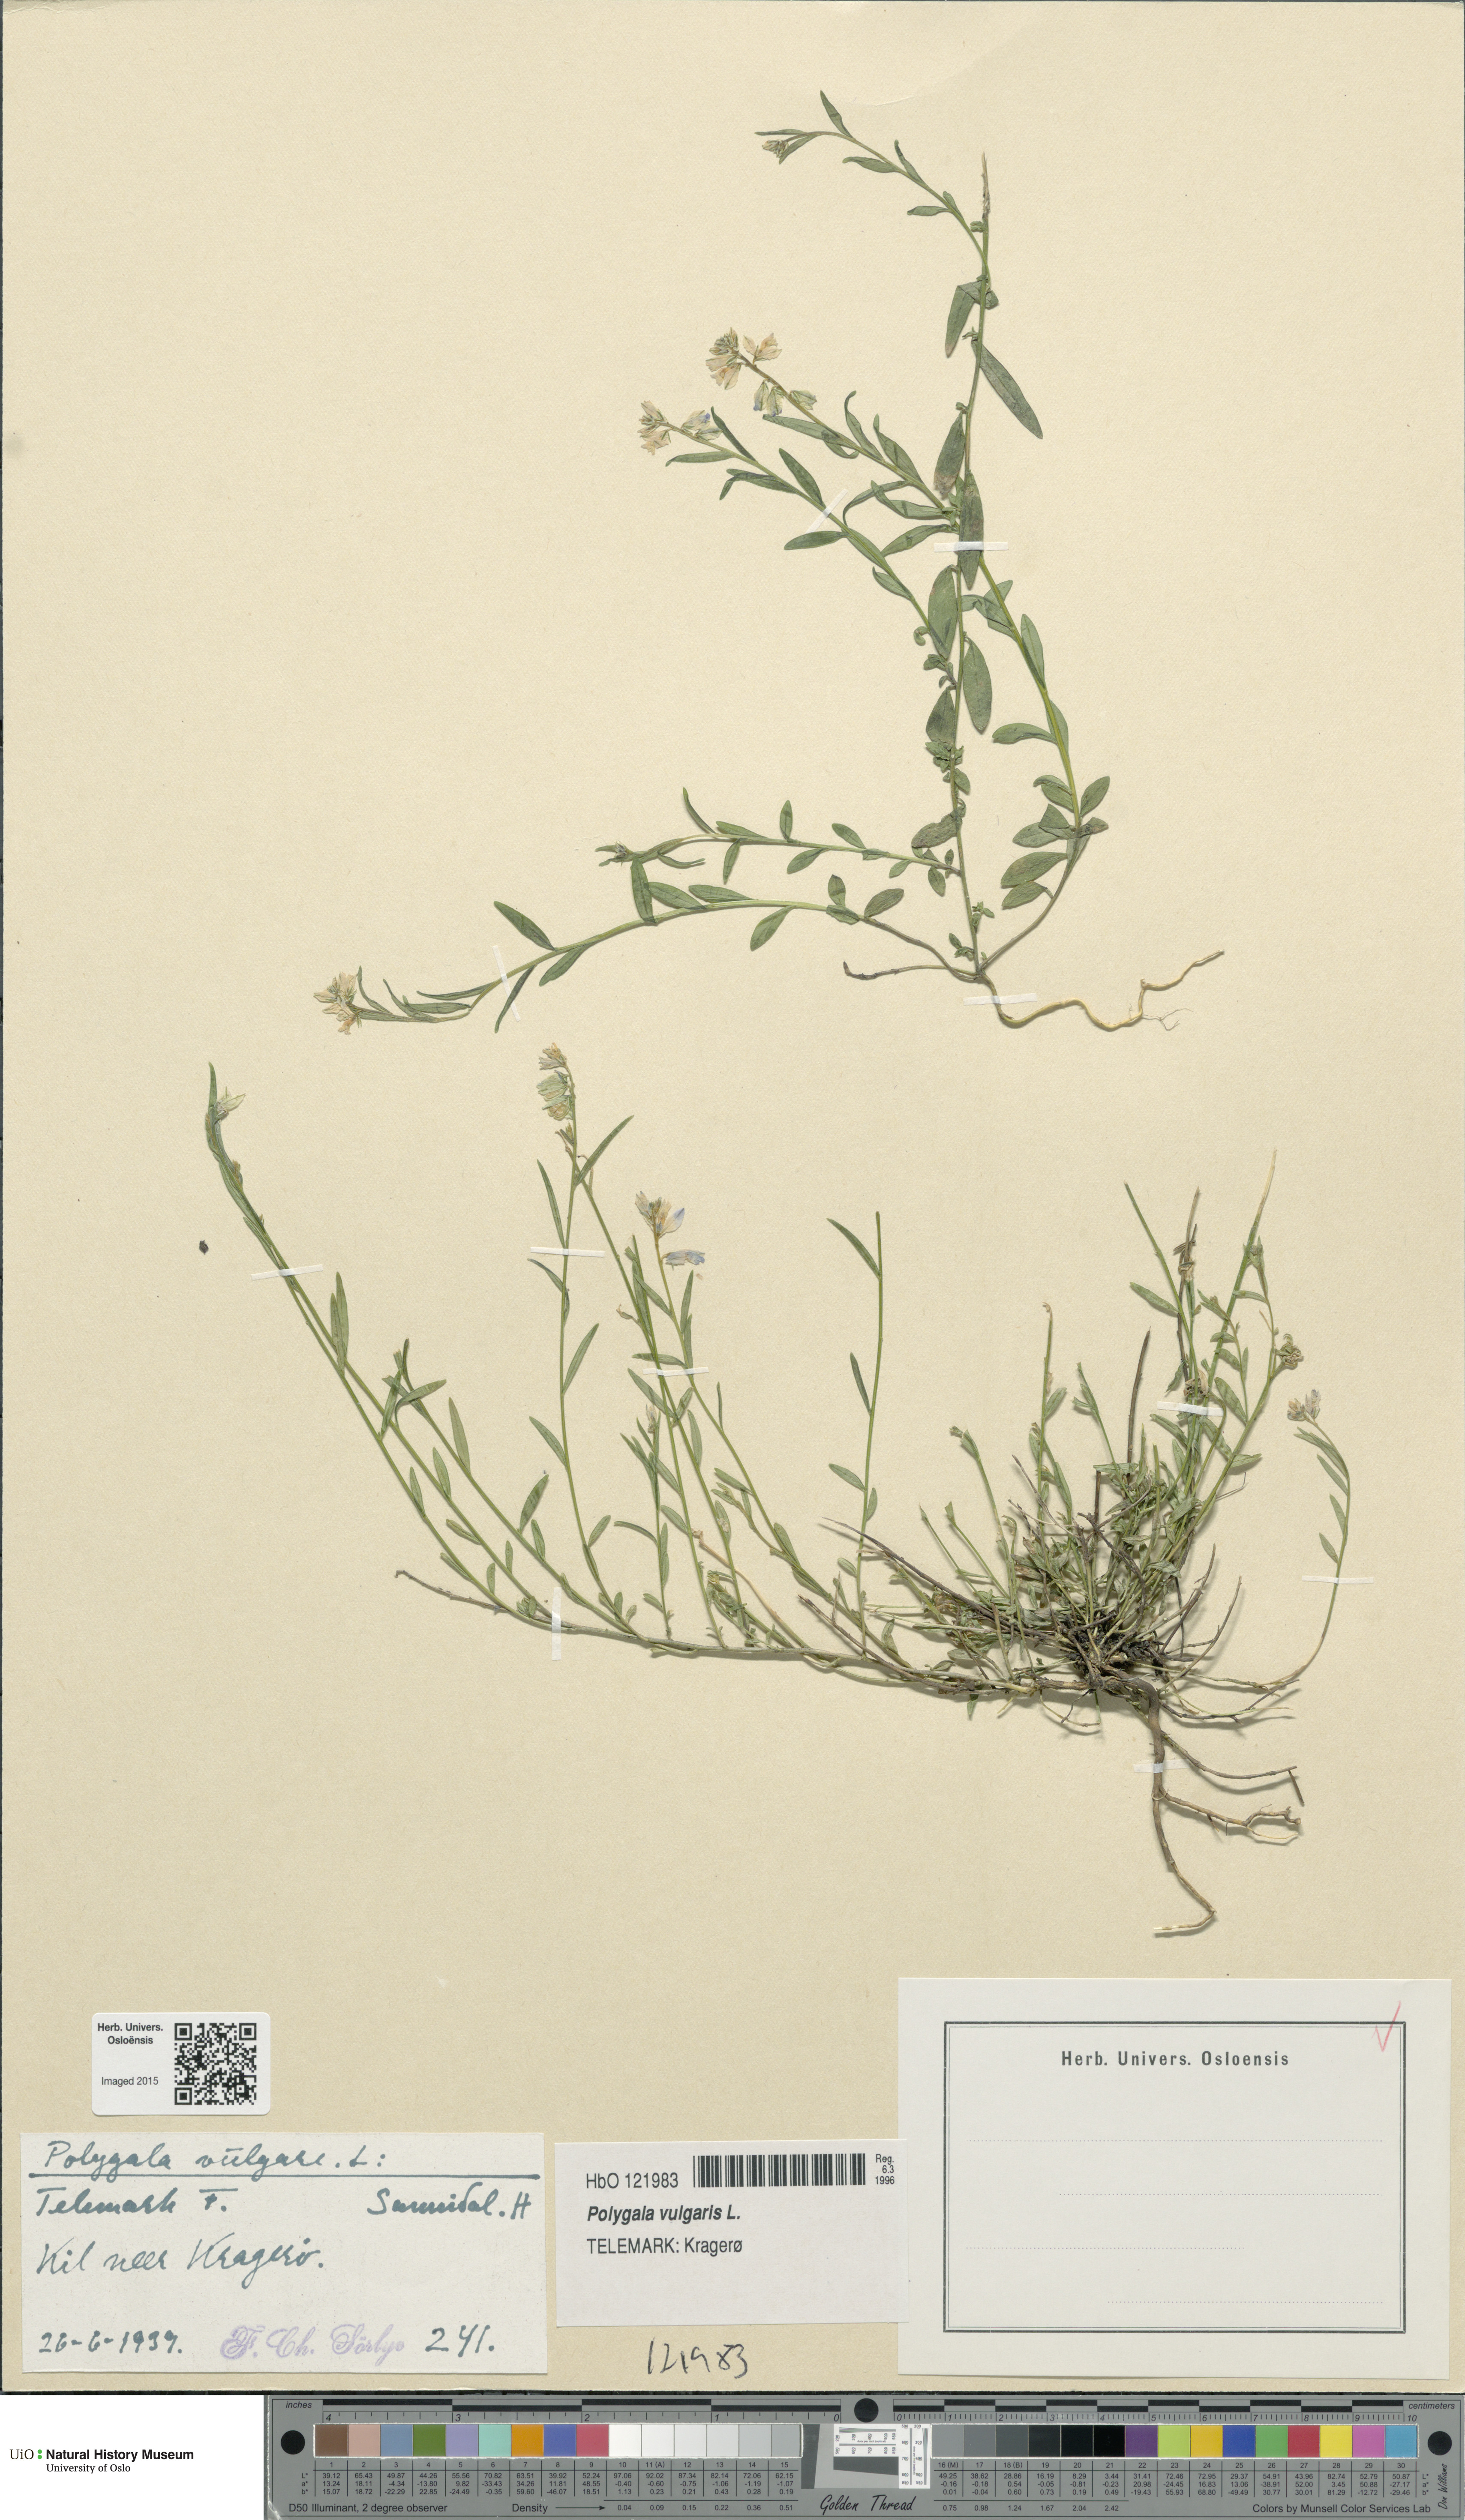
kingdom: Plantae
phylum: Tracheophyta
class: Magnoliopsida
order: Fabales
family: Polygalaceae
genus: Polygala
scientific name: Polygala vulgaris
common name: Common milkwort
